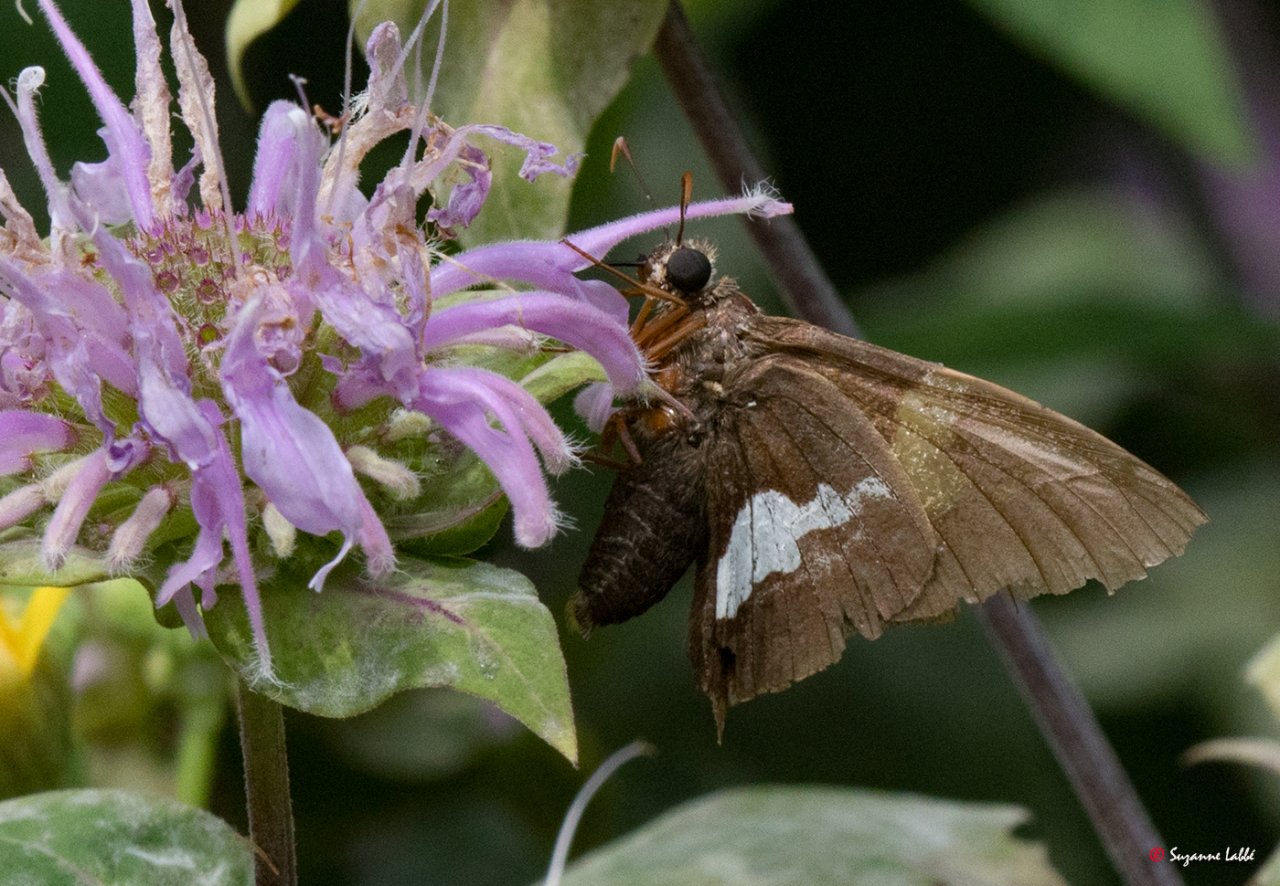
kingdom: Animalia
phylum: Arthropoda
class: Insecta
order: Lepidoptera
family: Hesperiidae
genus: Epargyreus
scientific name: Epargyreus clarus
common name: Silver-spotted Skipper
